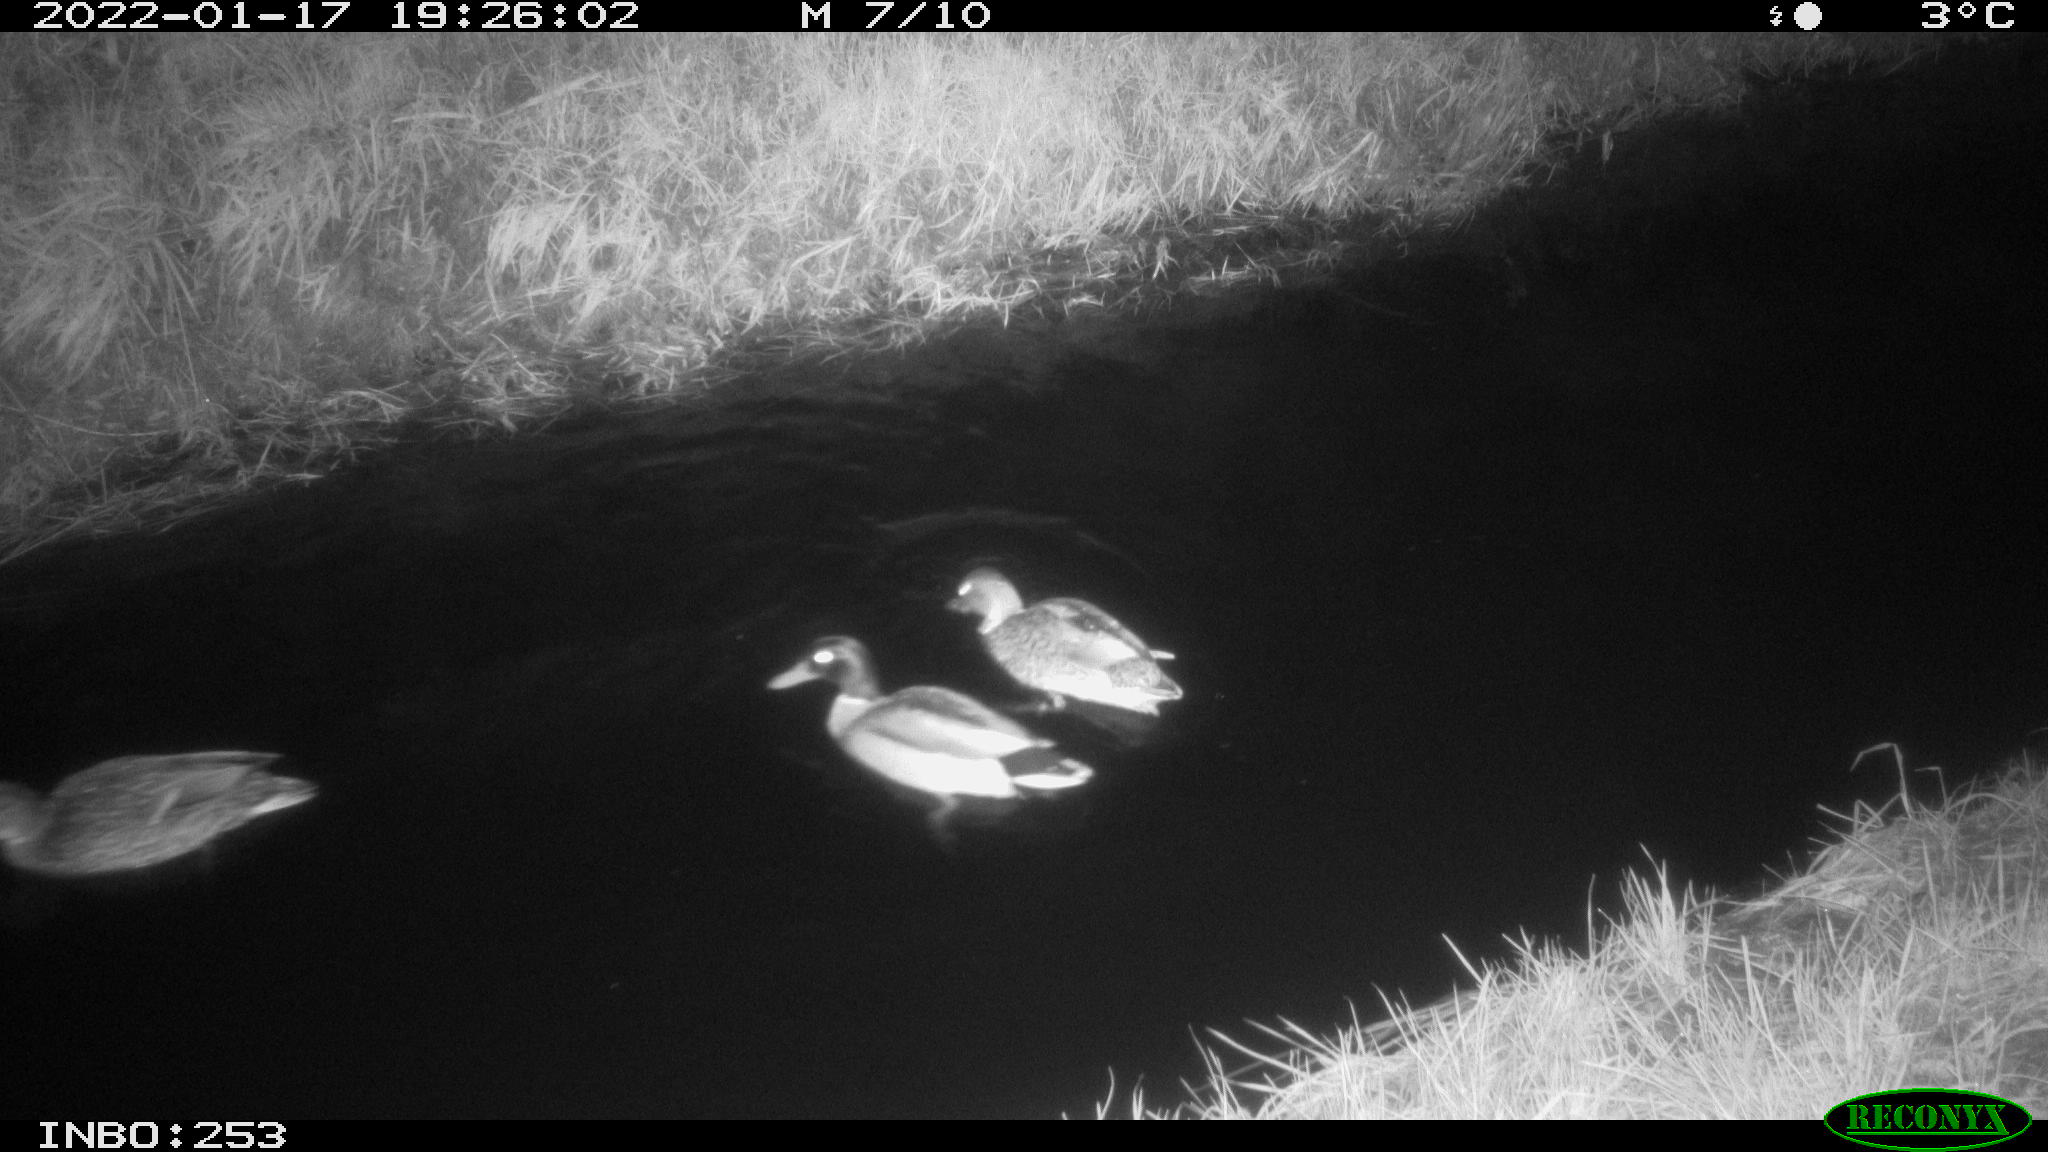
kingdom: Animalia
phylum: Chordata
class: Aves
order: Anseriformes
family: Anatidae
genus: Anas
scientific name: Anas platyrhynchos
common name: Mallard
